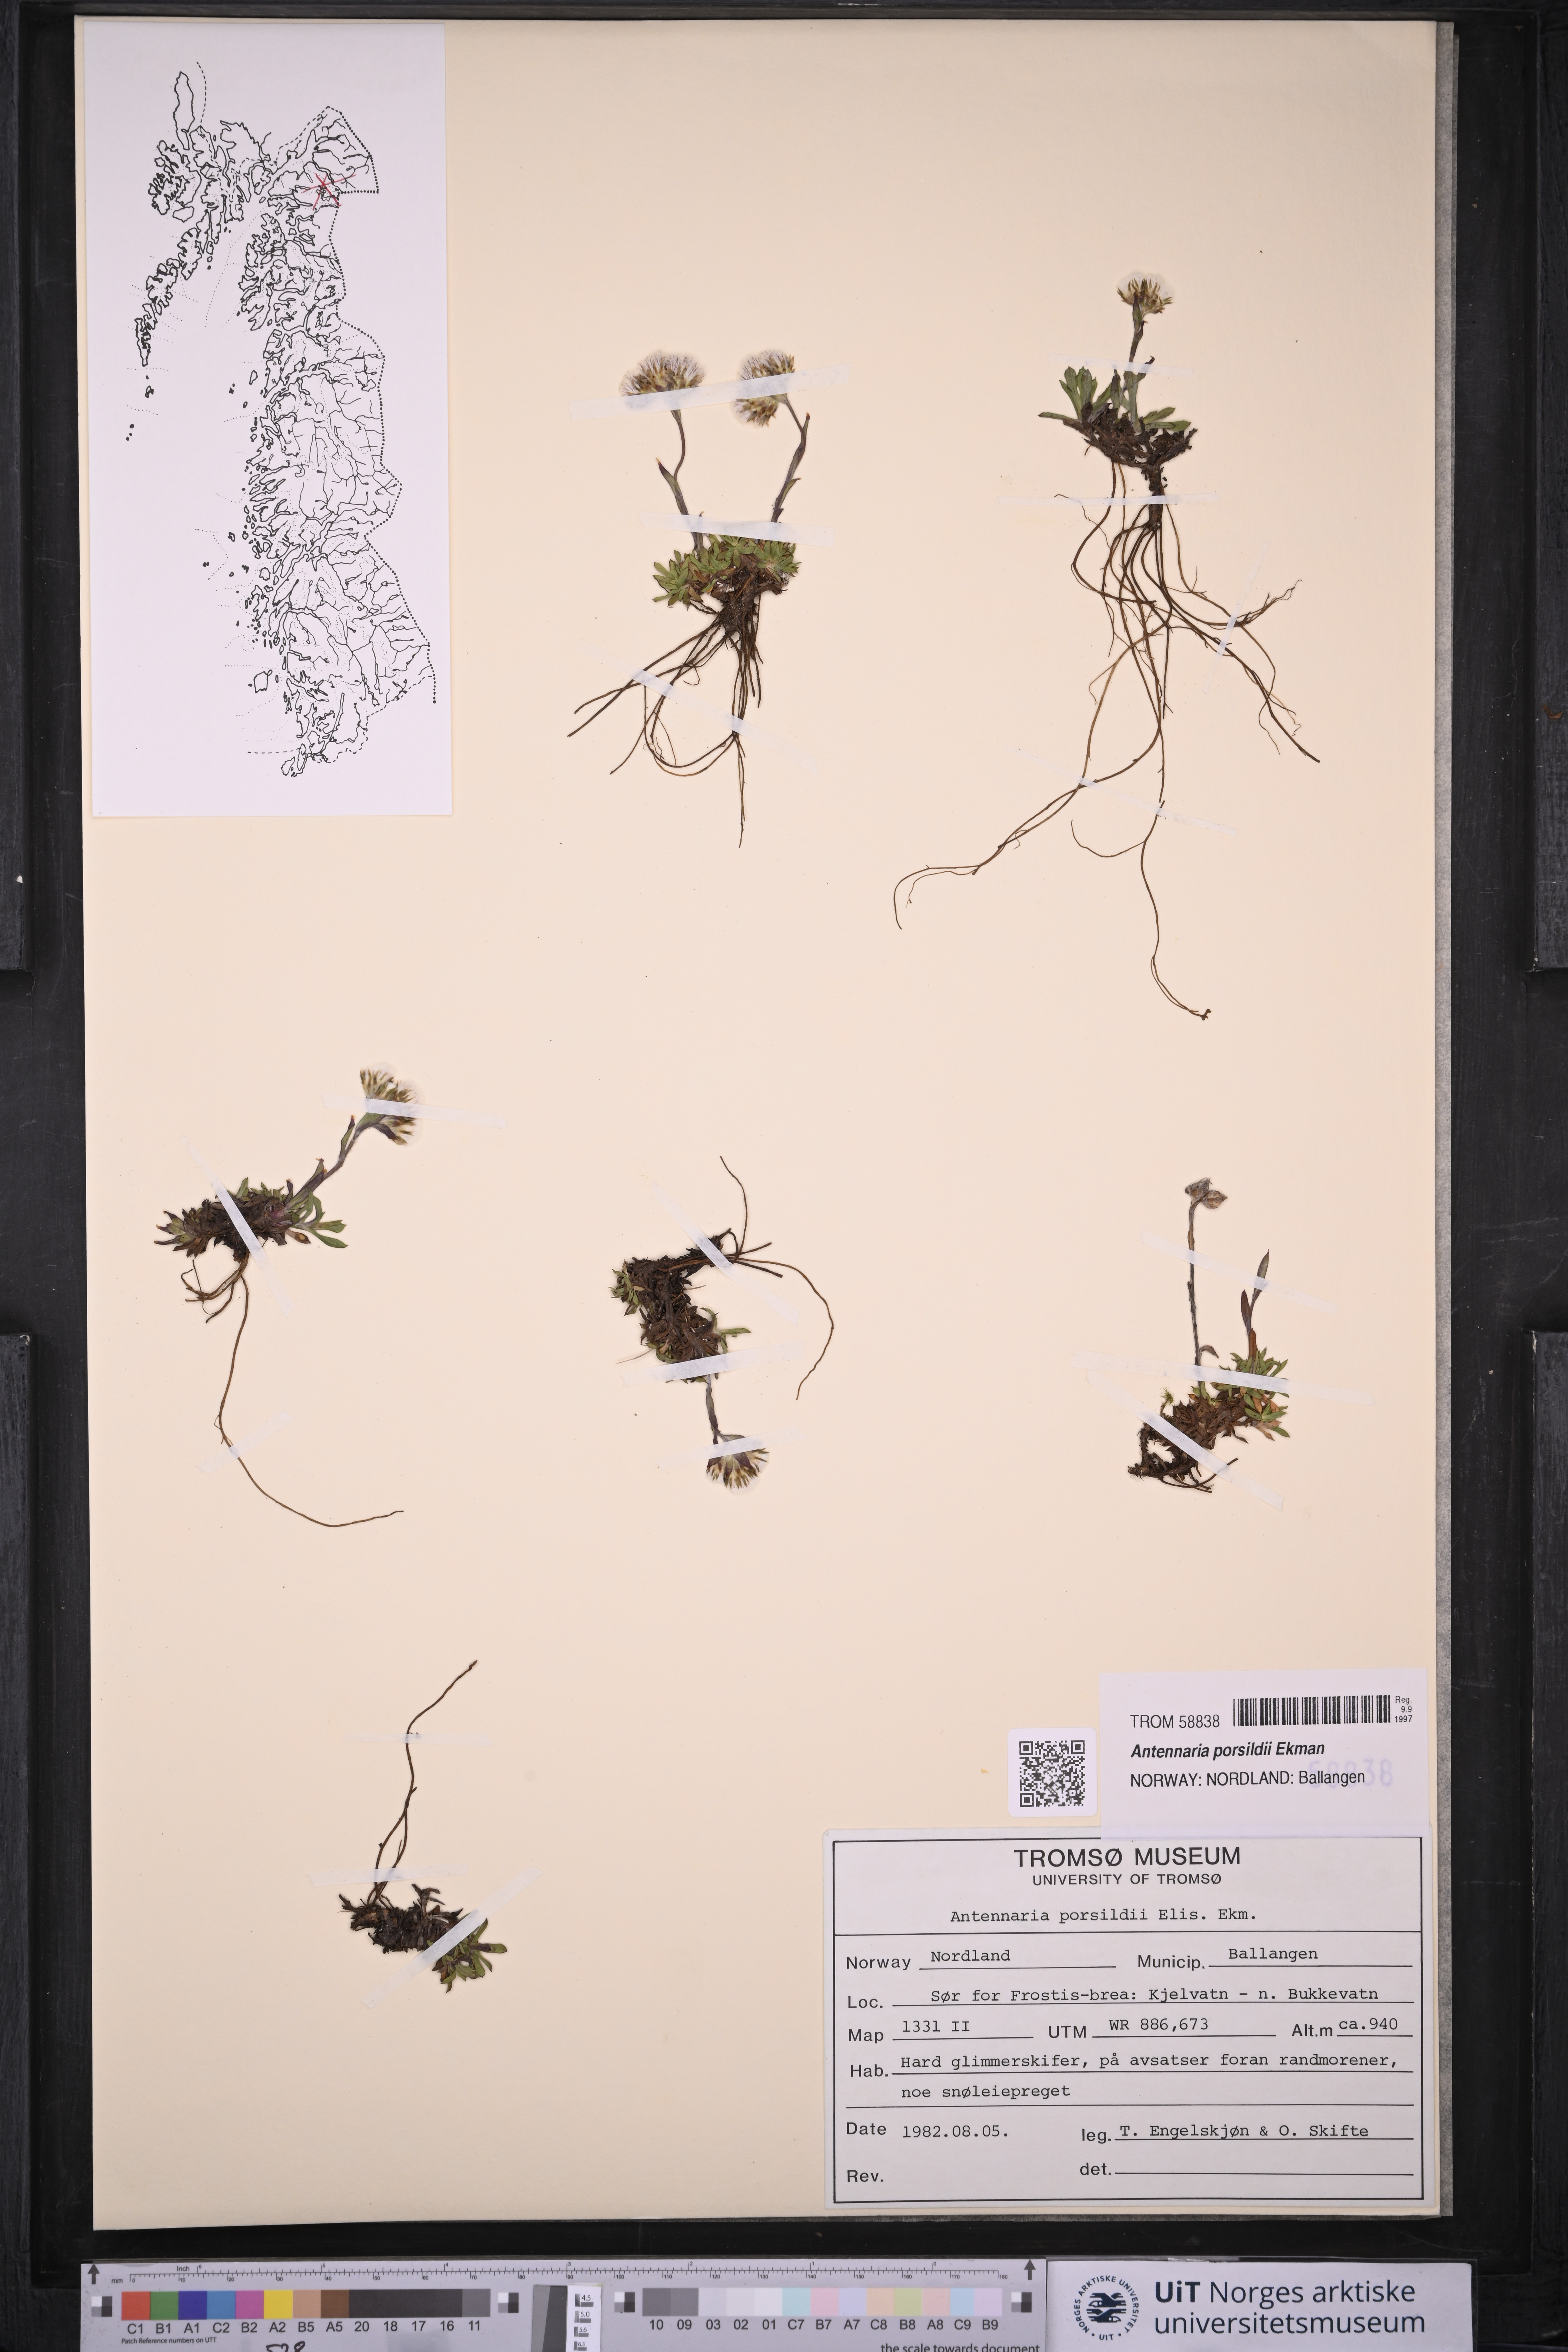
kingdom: Plantae
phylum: Tracheophyta
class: Magnoliopsida
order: Asterales
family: Asteraceae
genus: Antennaria
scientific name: Antennaria porsildii
